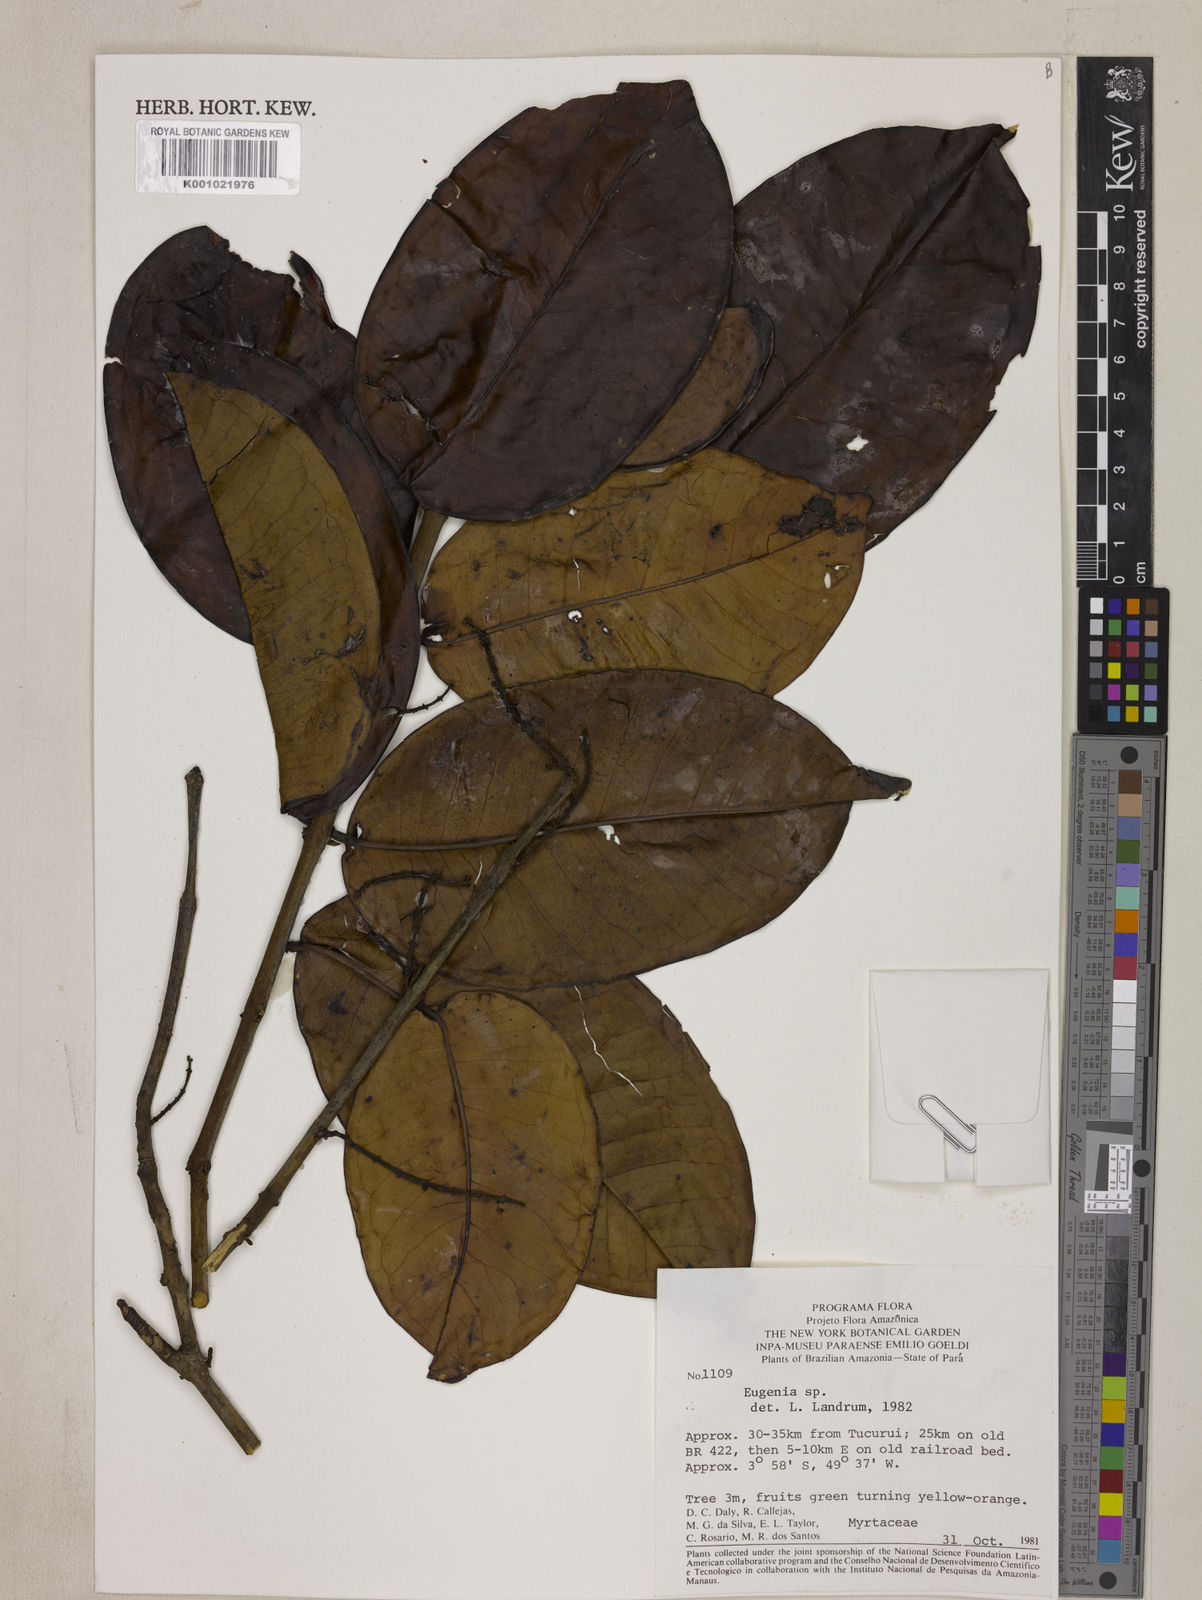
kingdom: Plantae
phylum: Tracheophyta
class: Magnoliopsida
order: Myrtales
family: Myrtaceae
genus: Eugenia
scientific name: Eugenia candolleana
